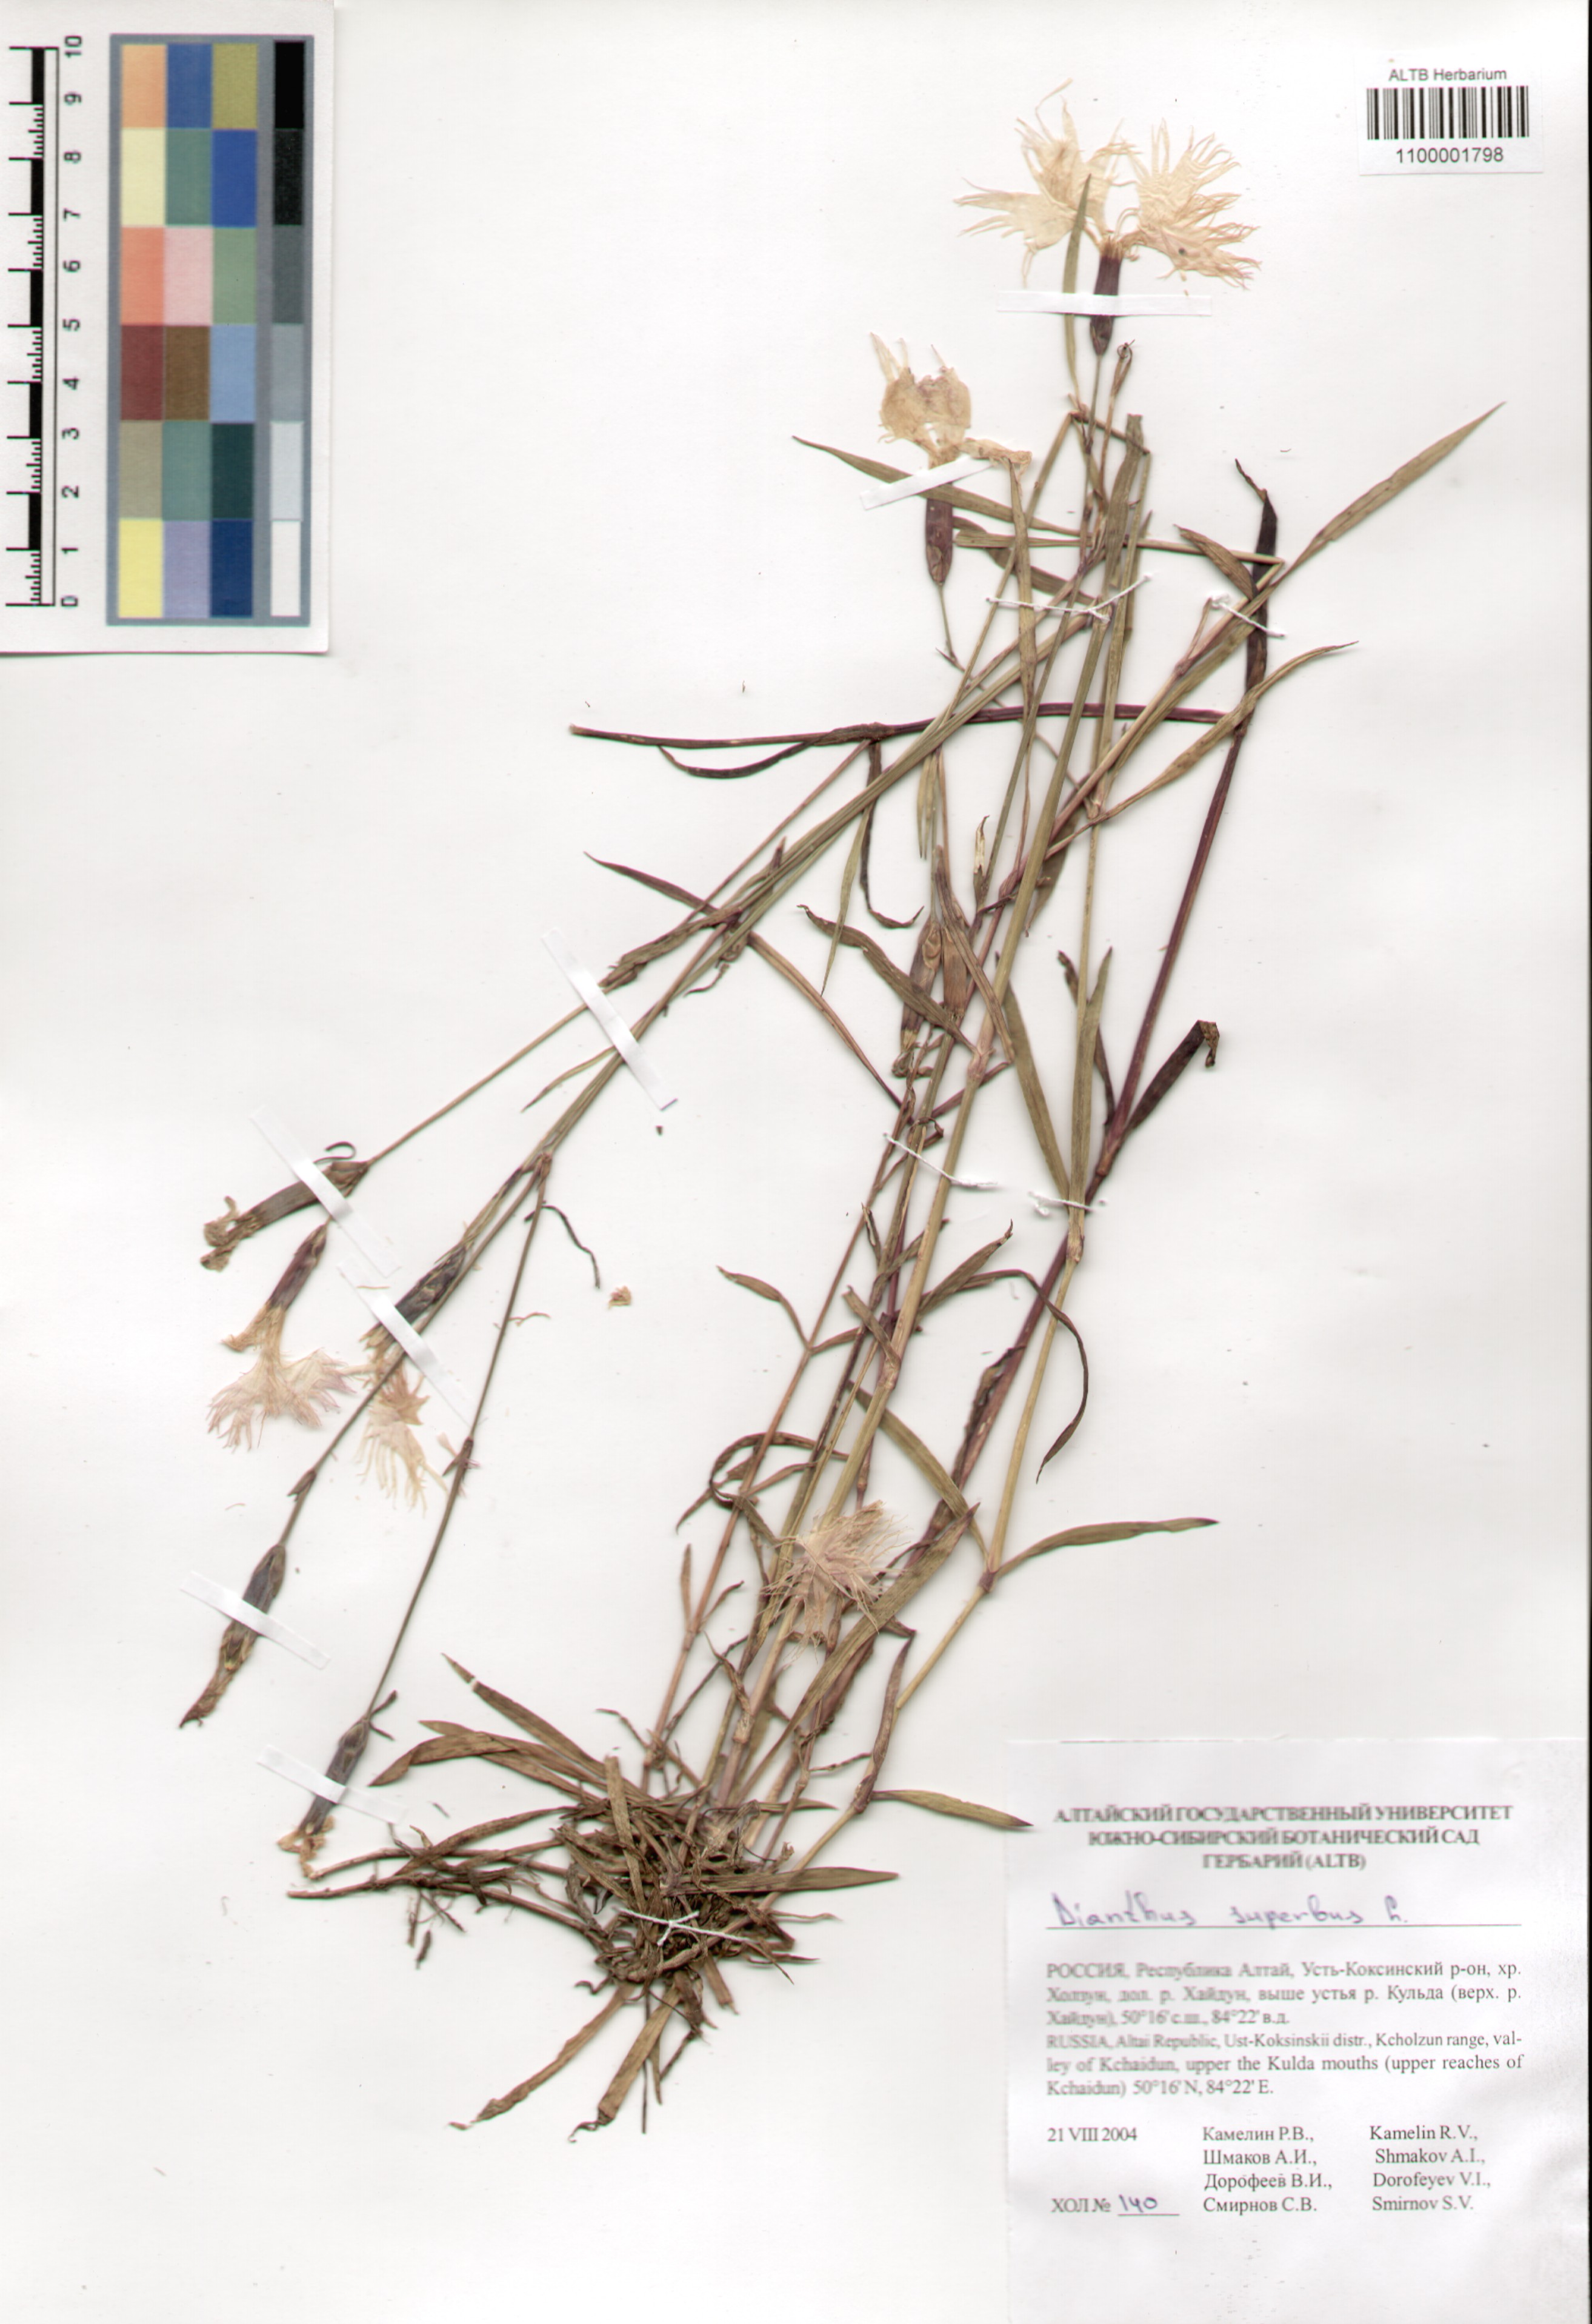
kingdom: Plantae
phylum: Tracheophyta
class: Magnoliopsida
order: Caryophyllales
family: Caryophyllaceae
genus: Dianthus
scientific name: Dianthus superbus
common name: Fringed pink
